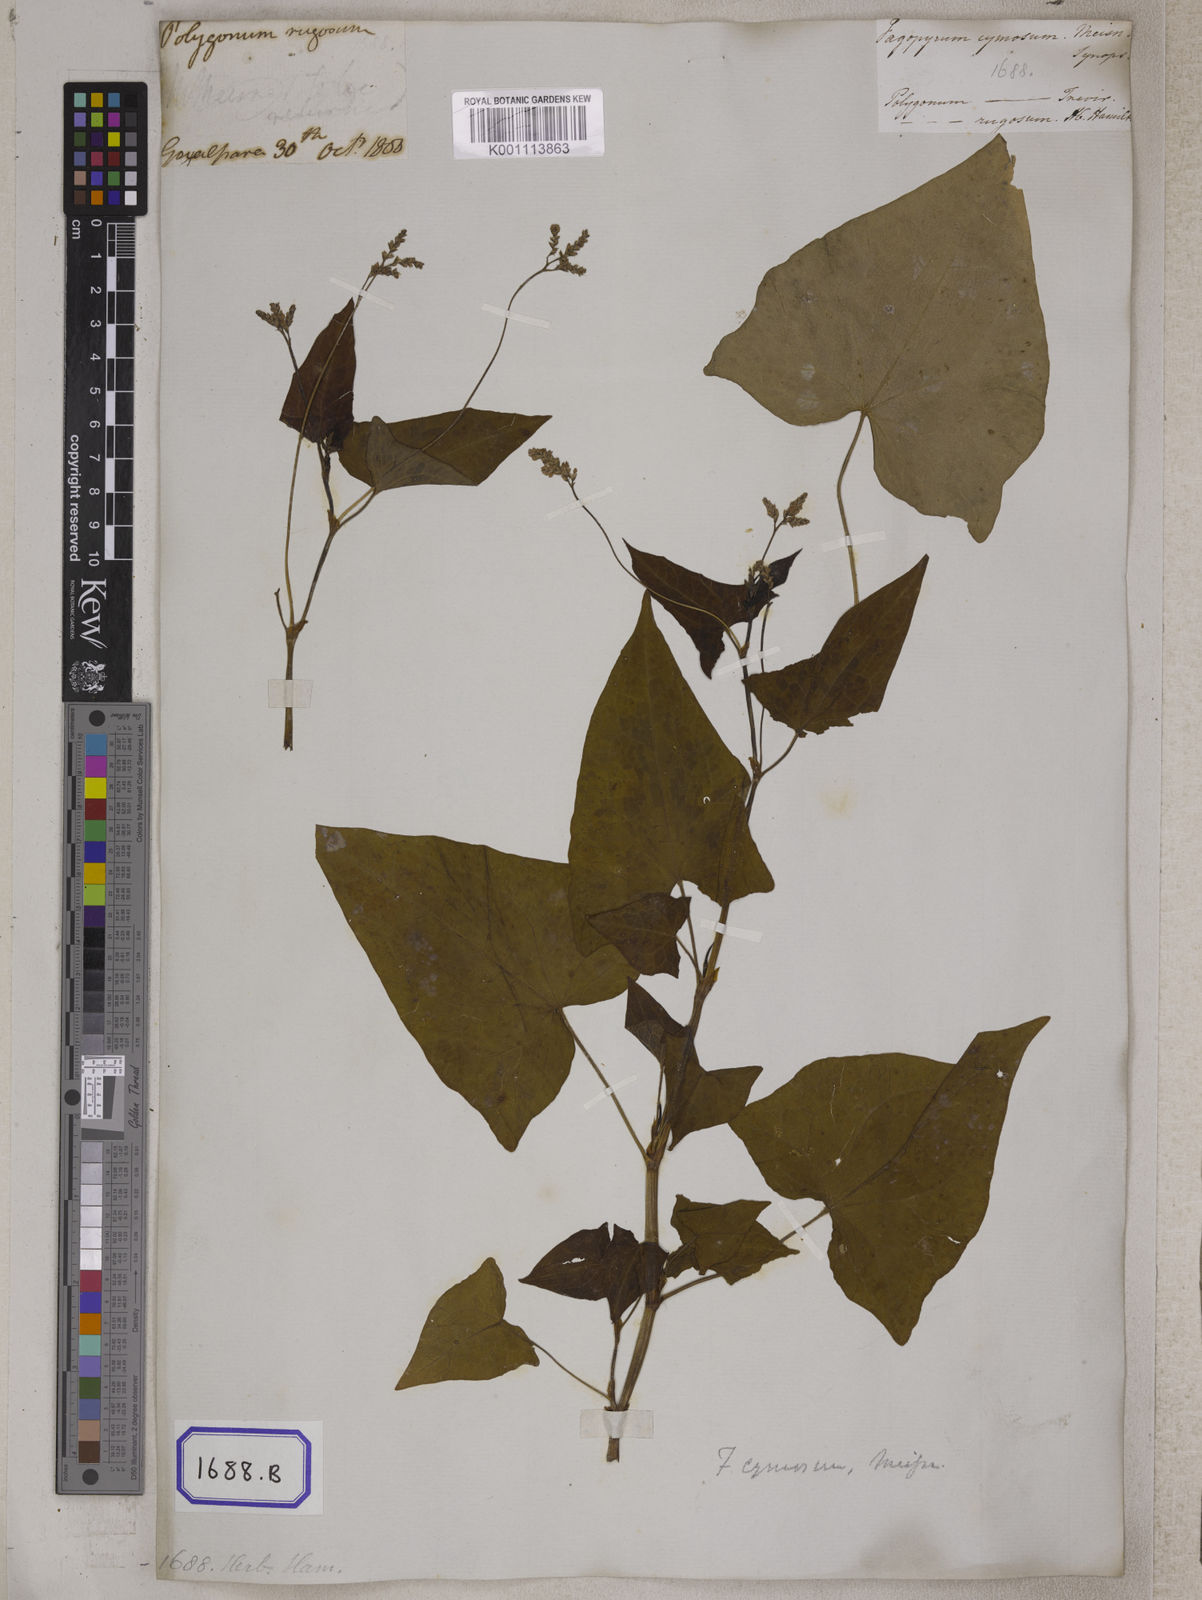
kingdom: Plantae
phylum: Tracheophyta
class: Magnoliopsida
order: Caryophyllales
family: Polygonaceae
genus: Fagopyrum
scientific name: Fagopyrum esculentum
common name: Buckwheat
